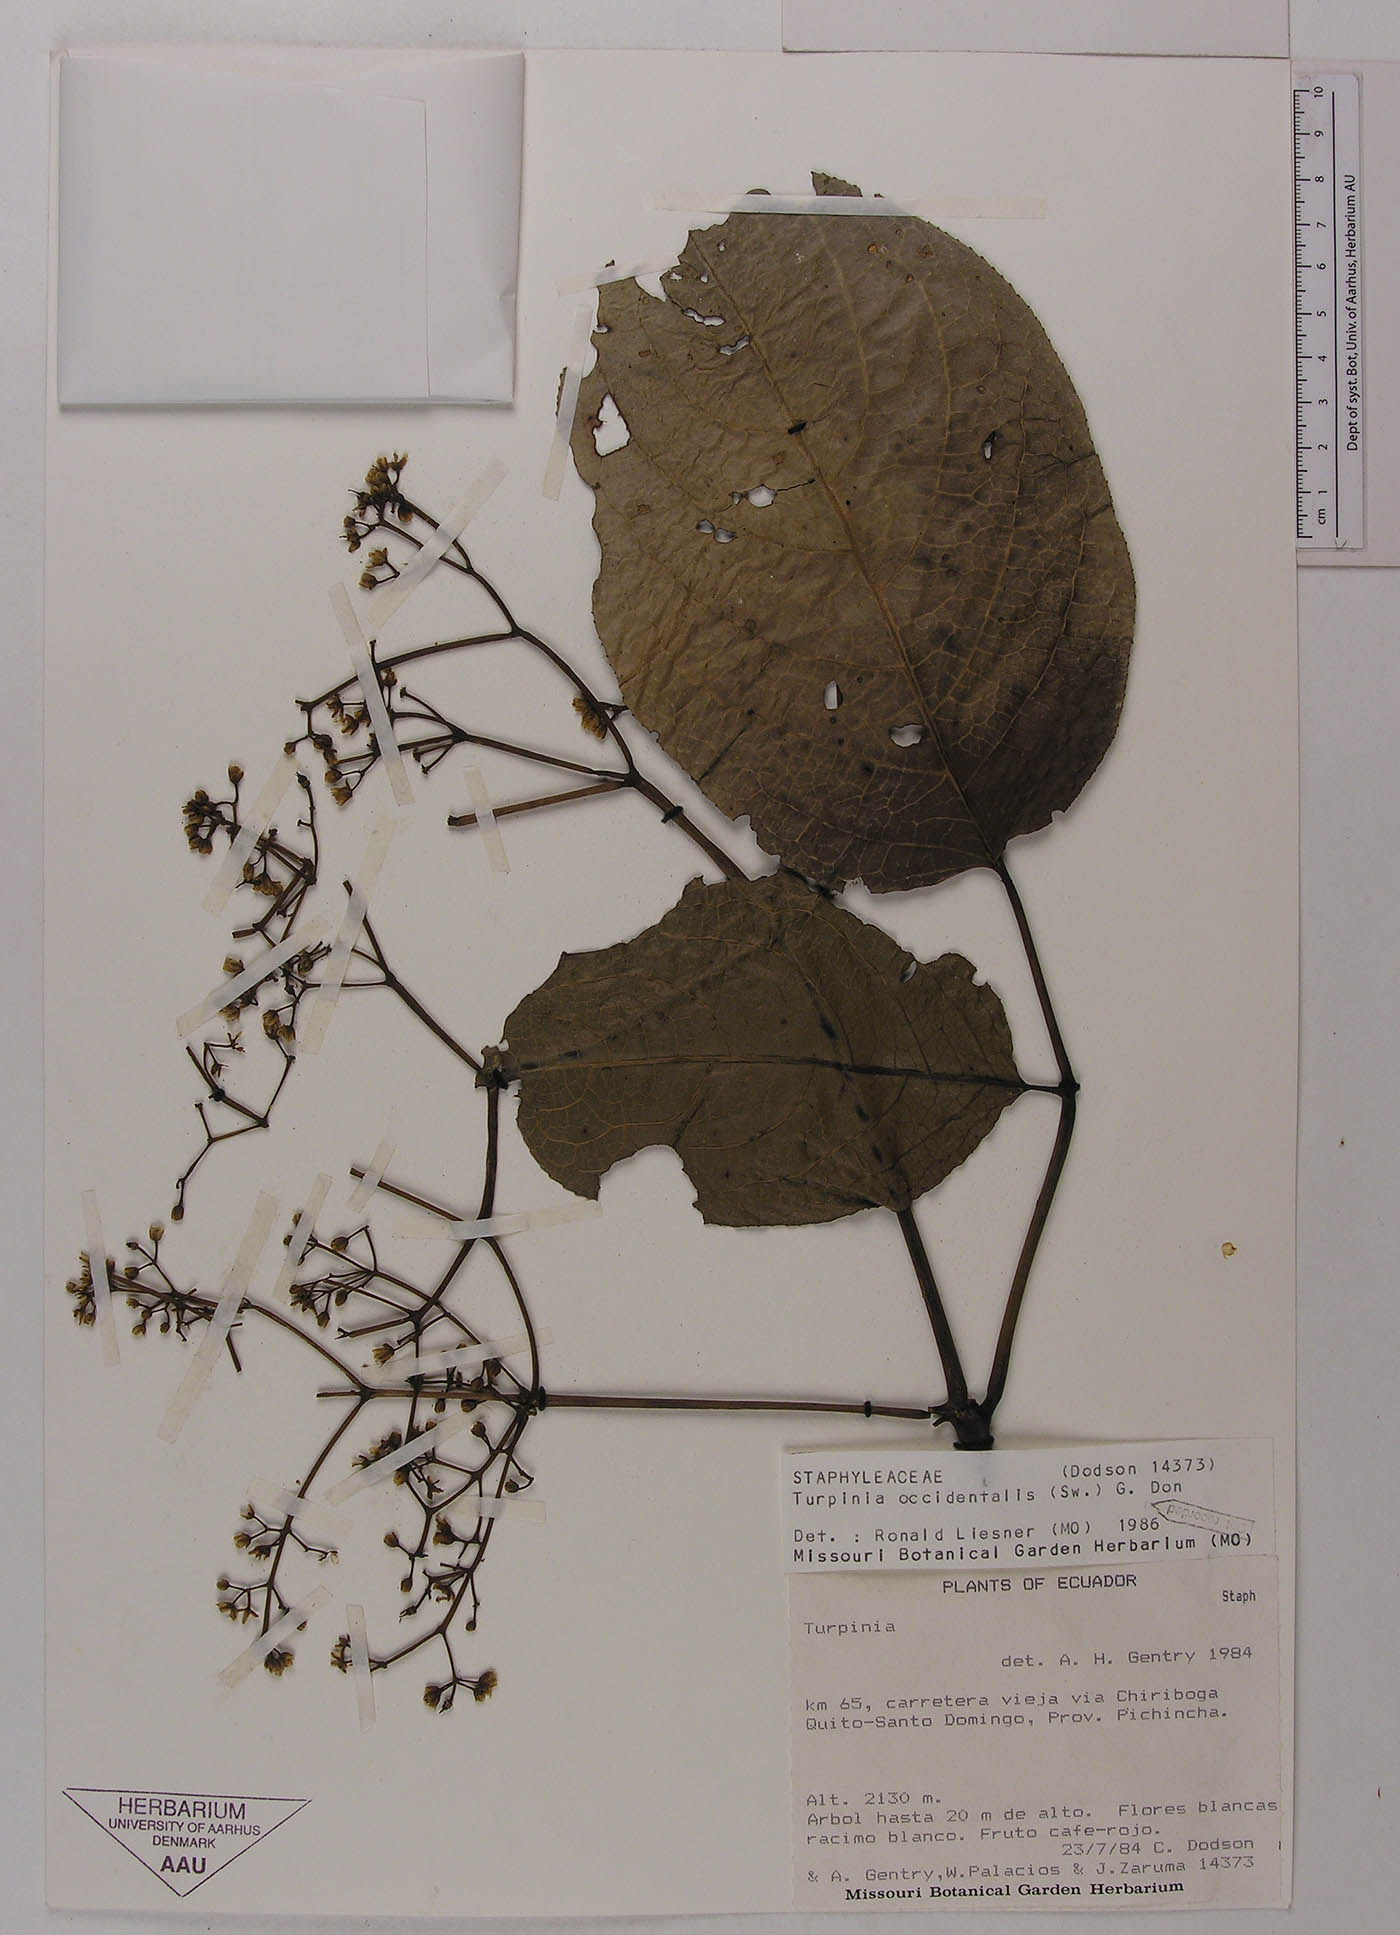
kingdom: Plantae
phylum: Tracheophyta
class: Magnoliopsida
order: Crossosomatales
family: Staphyleaceae
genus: Turpinia
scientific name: Turpinia megaphylla
